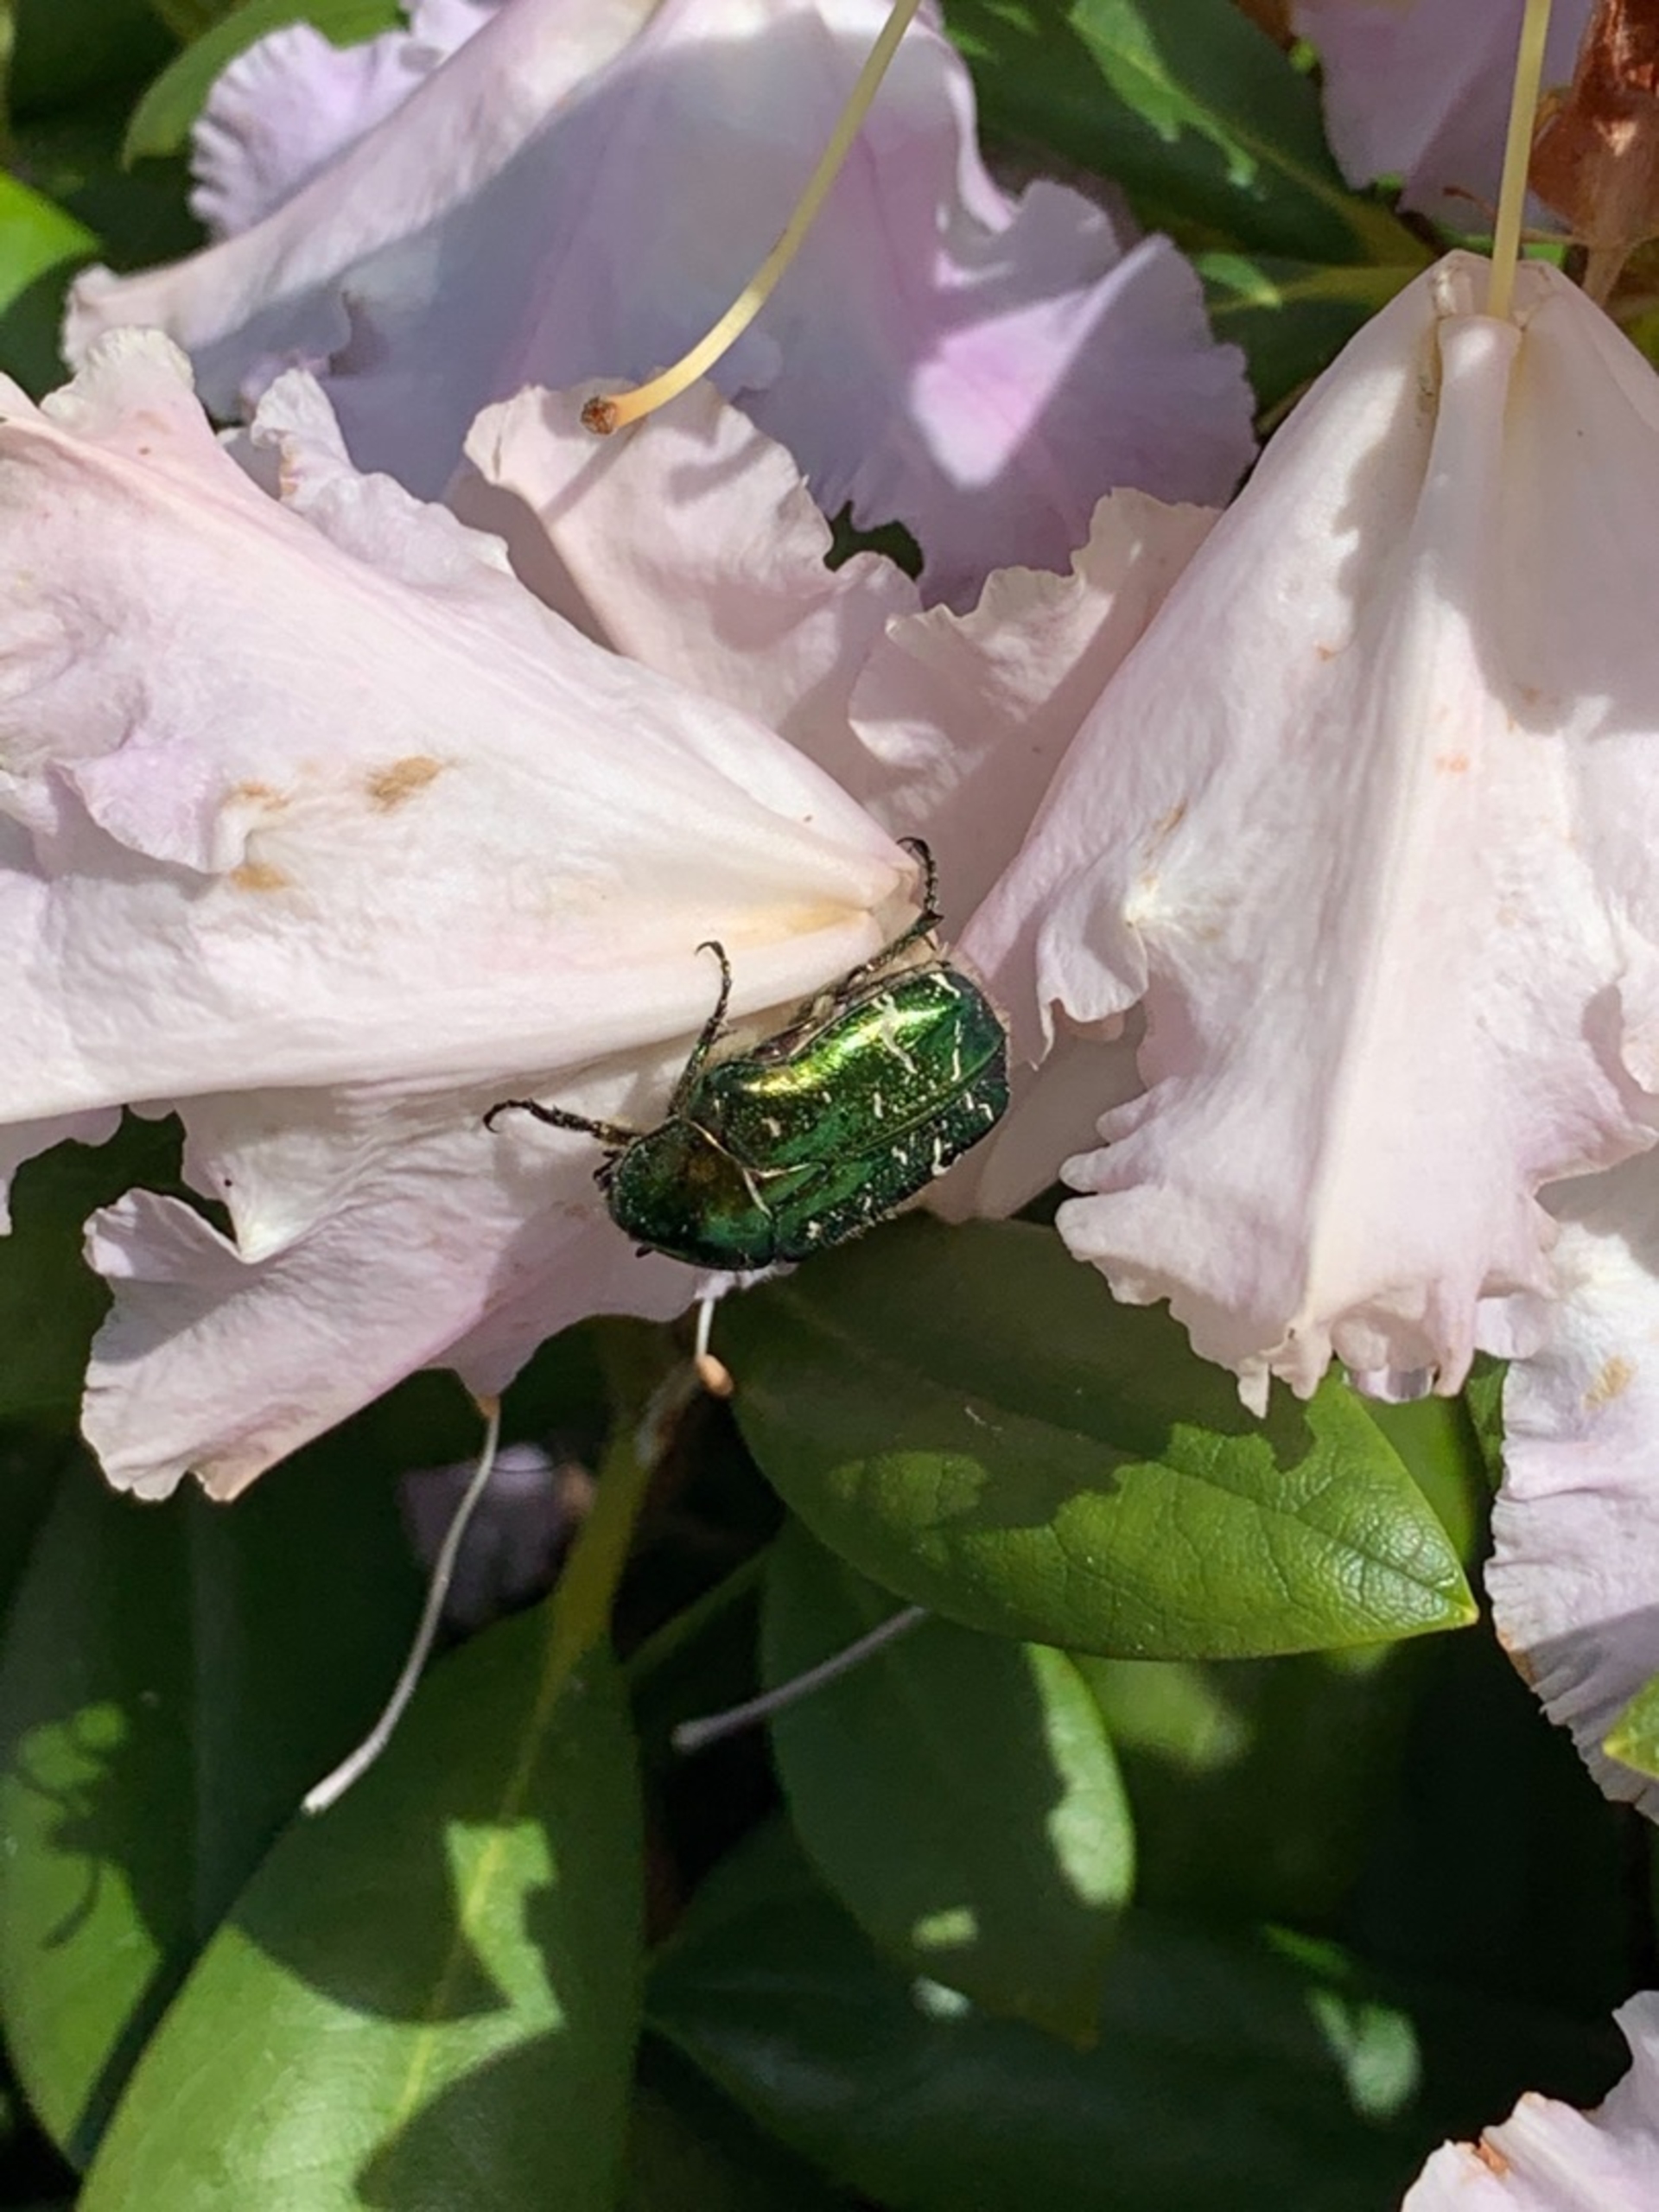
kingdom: Animalia
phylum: Arthropoda
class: Insecta
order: Coleoptera
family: Scarabaeidae
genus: Cetonia
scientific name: Cetonia aurata
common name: Grøn guldbasse
